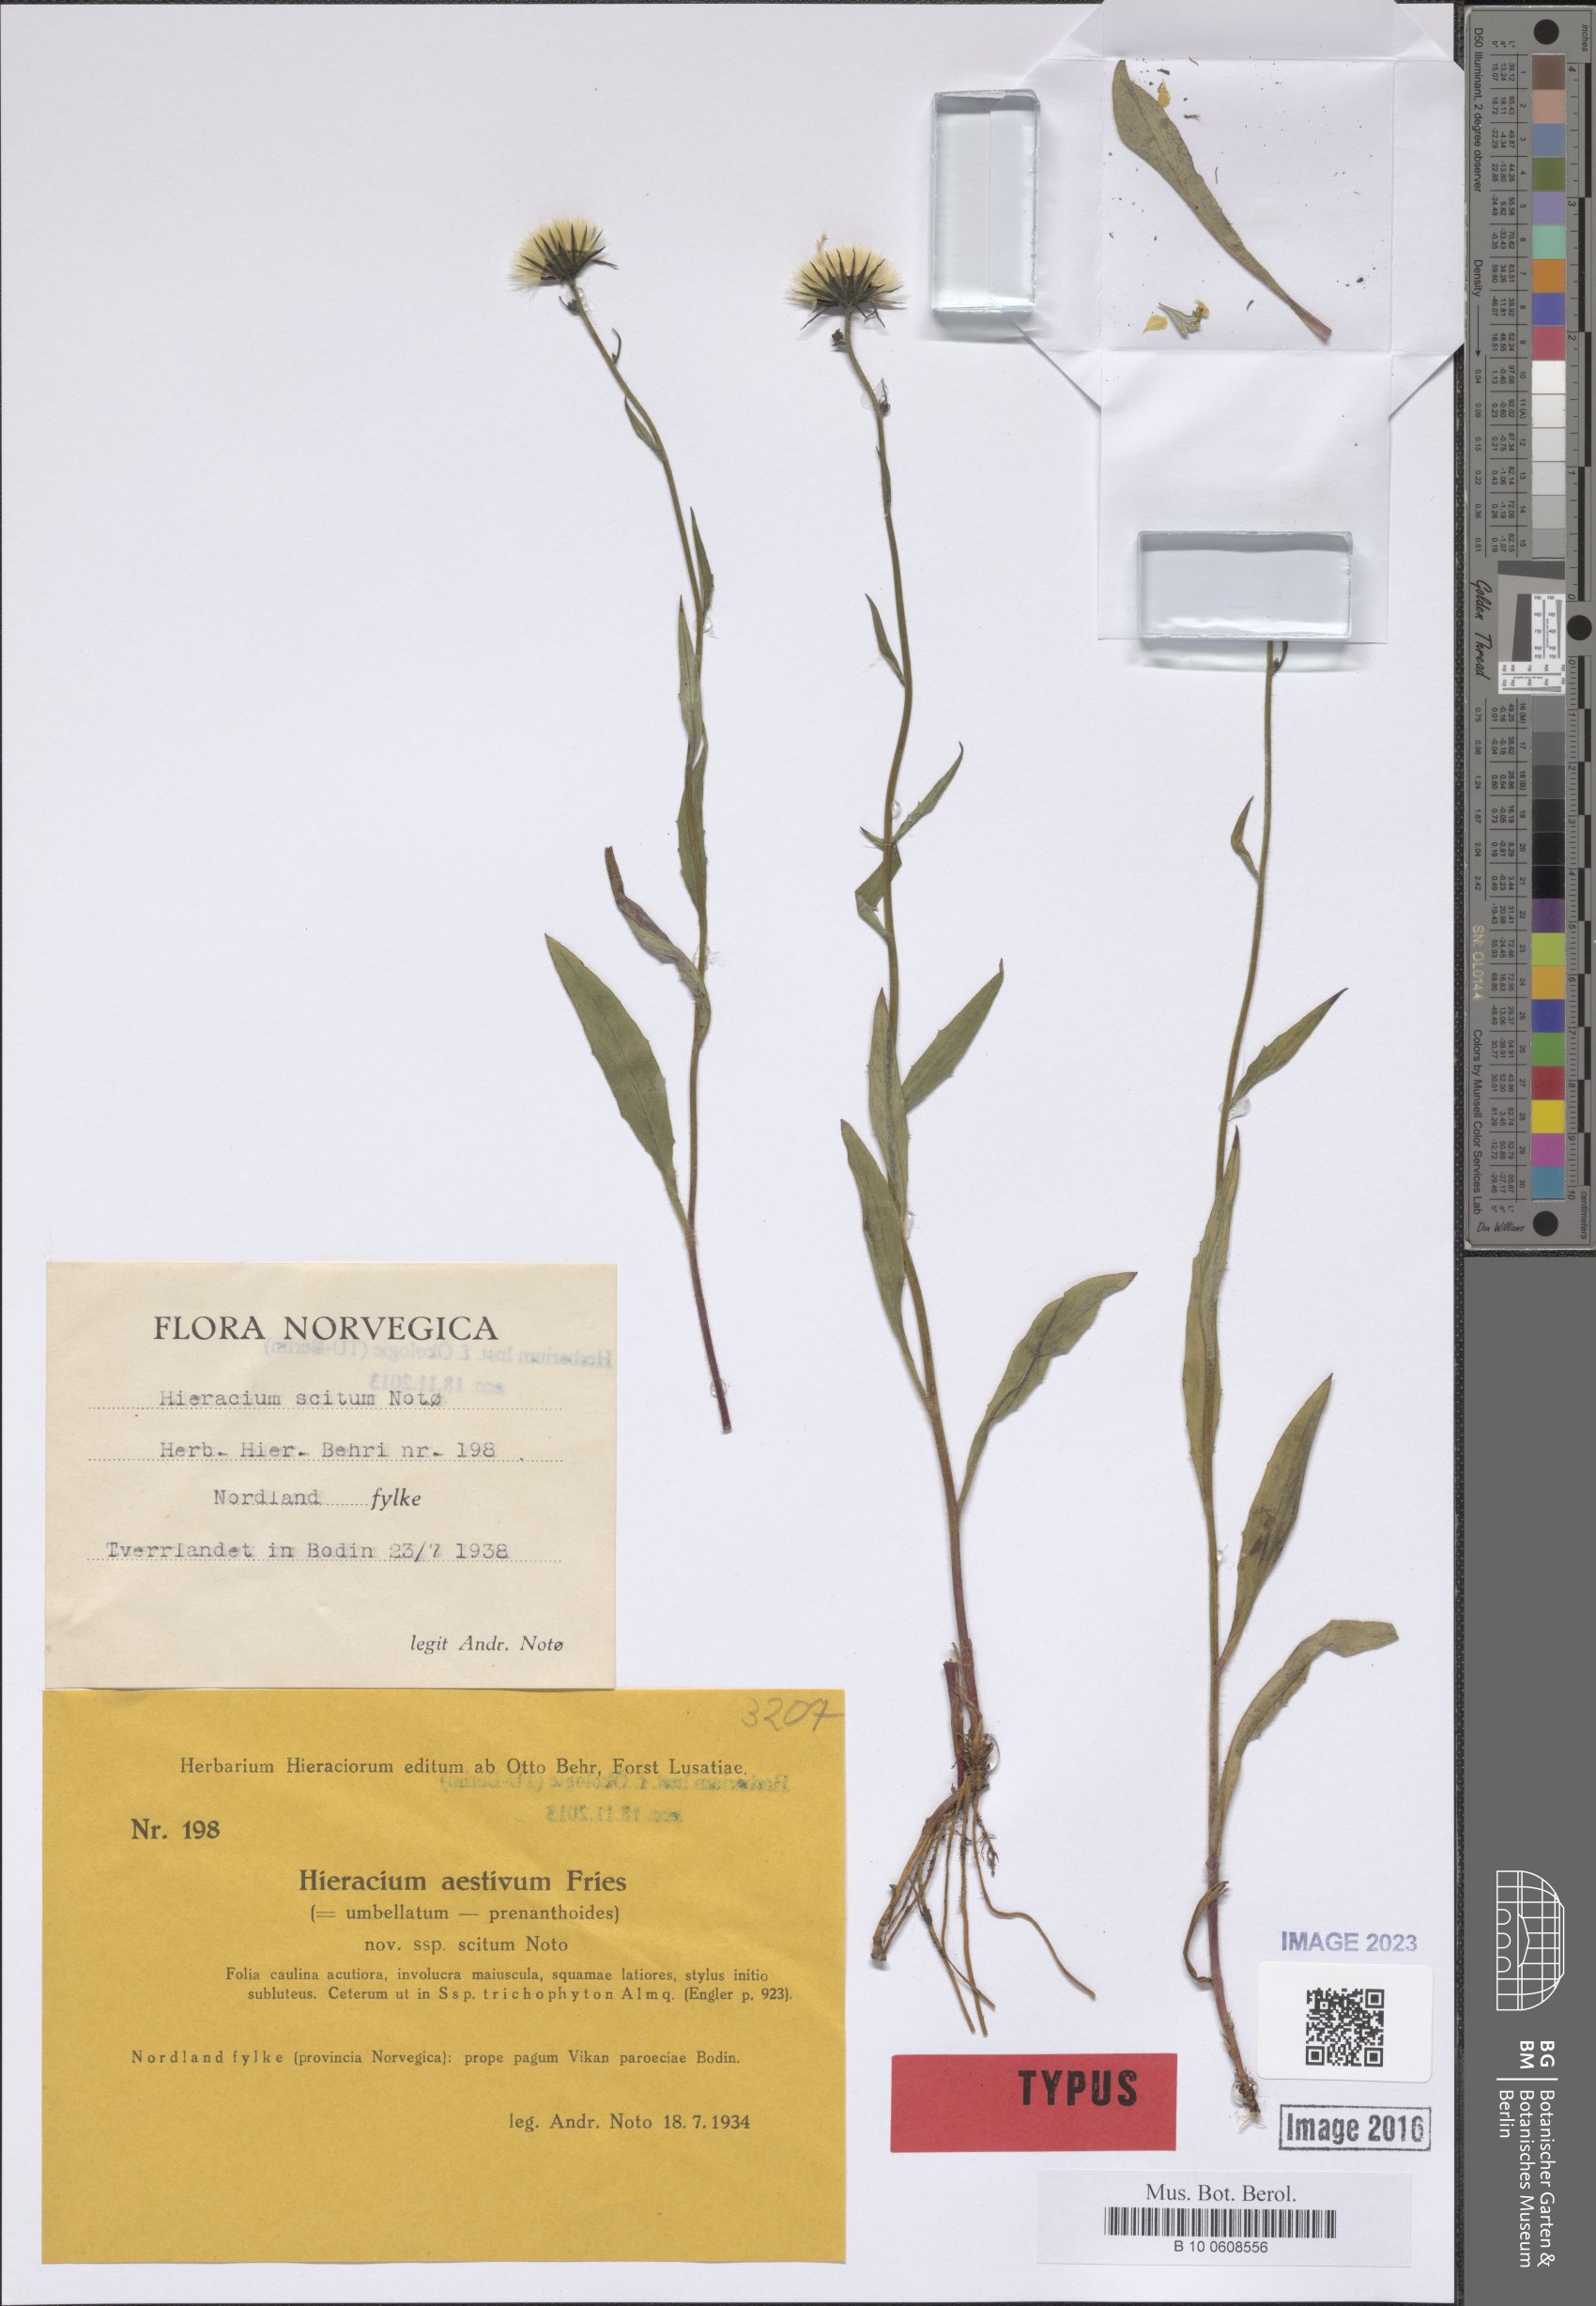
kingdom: Plantae
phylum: Tracheophyta
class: Magnoliopsida
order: Asterales
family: Asteraceae
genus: Hieracium
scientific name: Hieracium scitum
